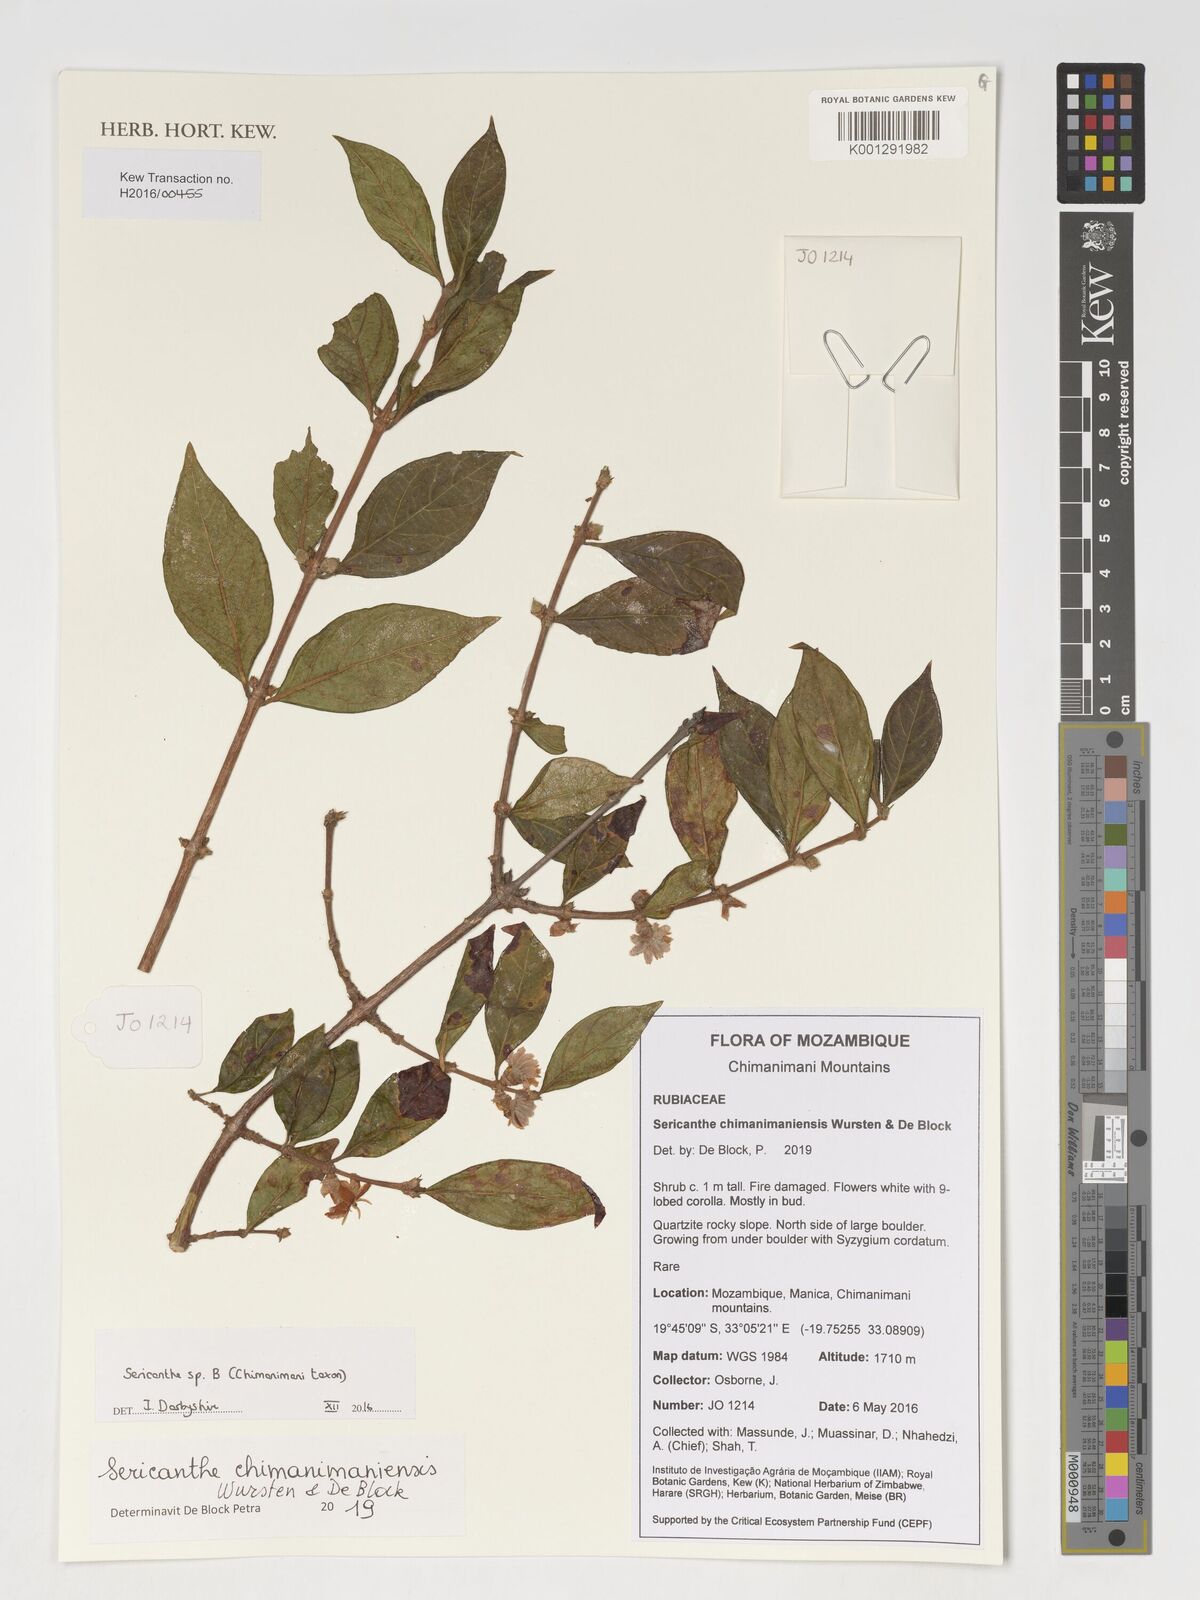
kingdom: Plantae
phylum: Tracheophyta
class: Magnoliopsida
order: Gentianales
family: Rubiaceae
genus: Sericanthe
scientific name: Sericanthe
